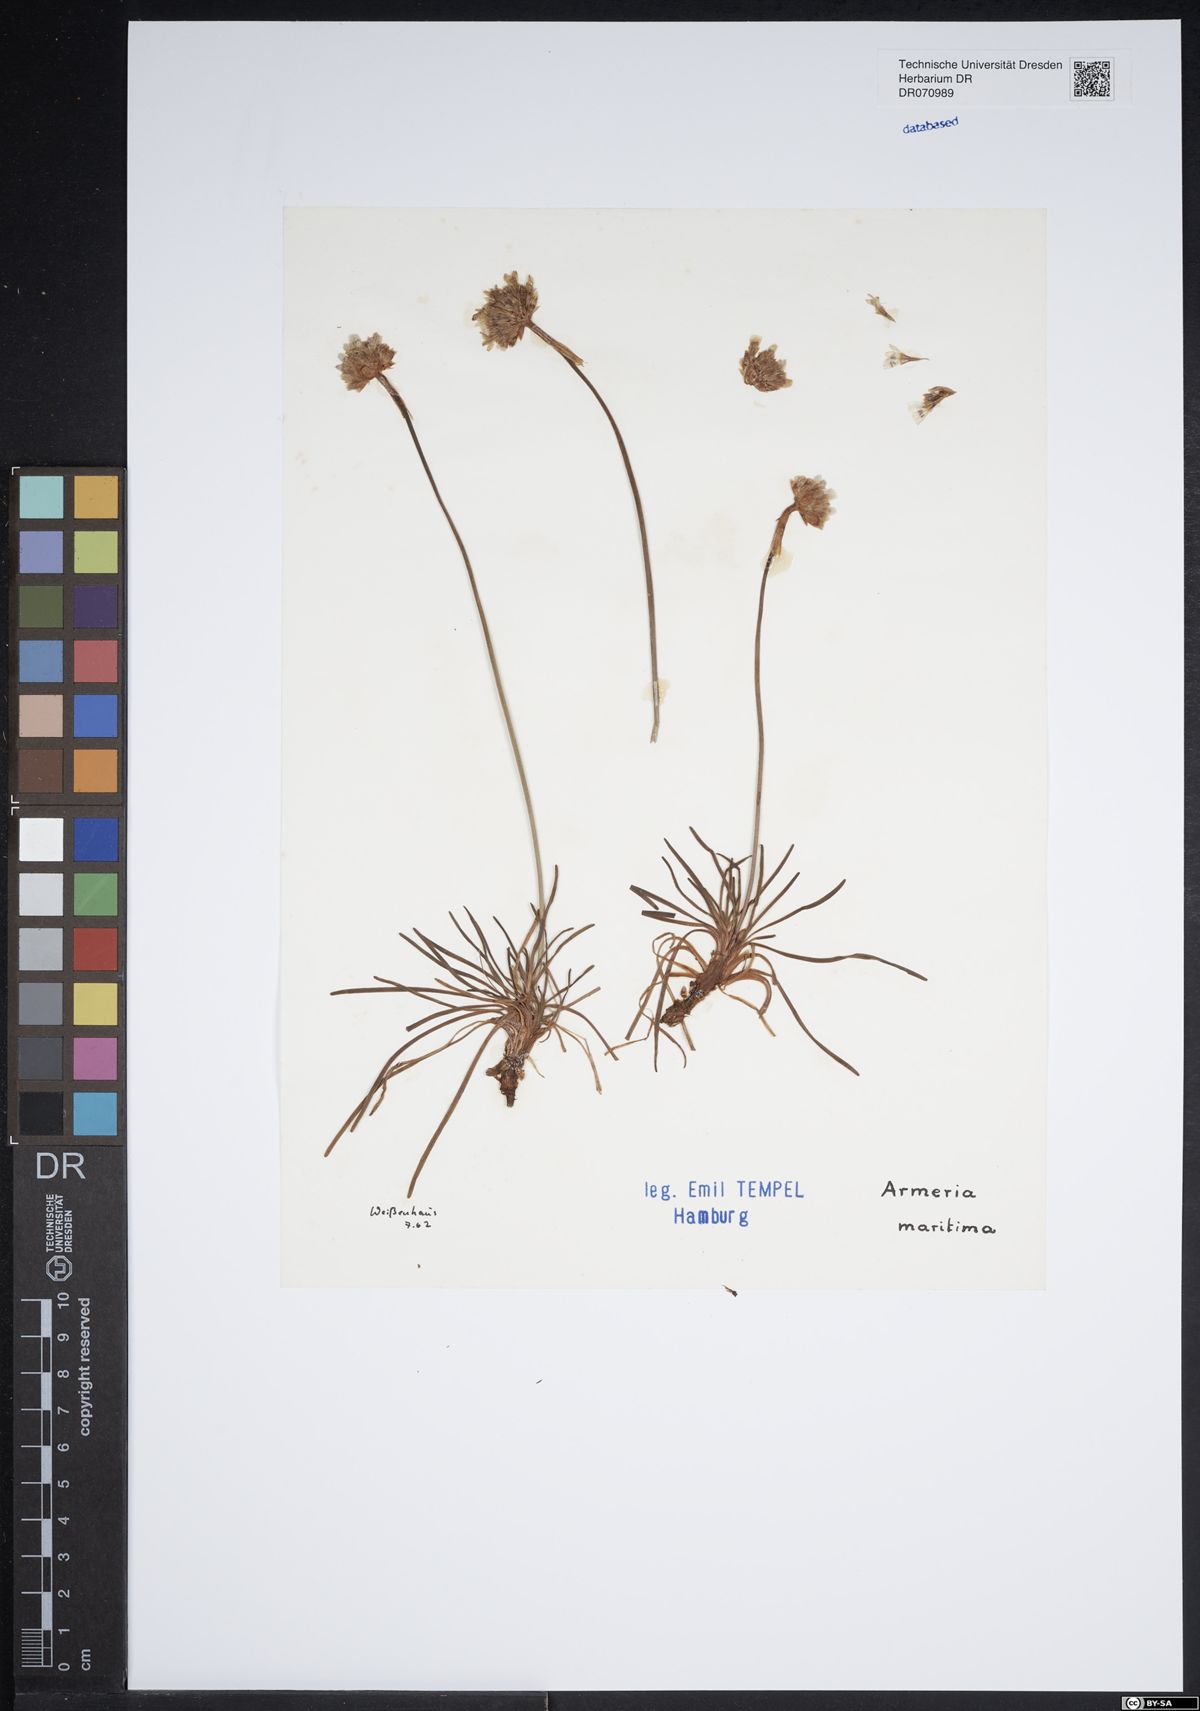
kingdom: Plantae
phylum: Tracheophyta
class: Magnoliopsida
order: Caryophyllales
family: Plumbaginaceae
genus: Armeria
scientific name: Armeria maritima
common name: Thrift
